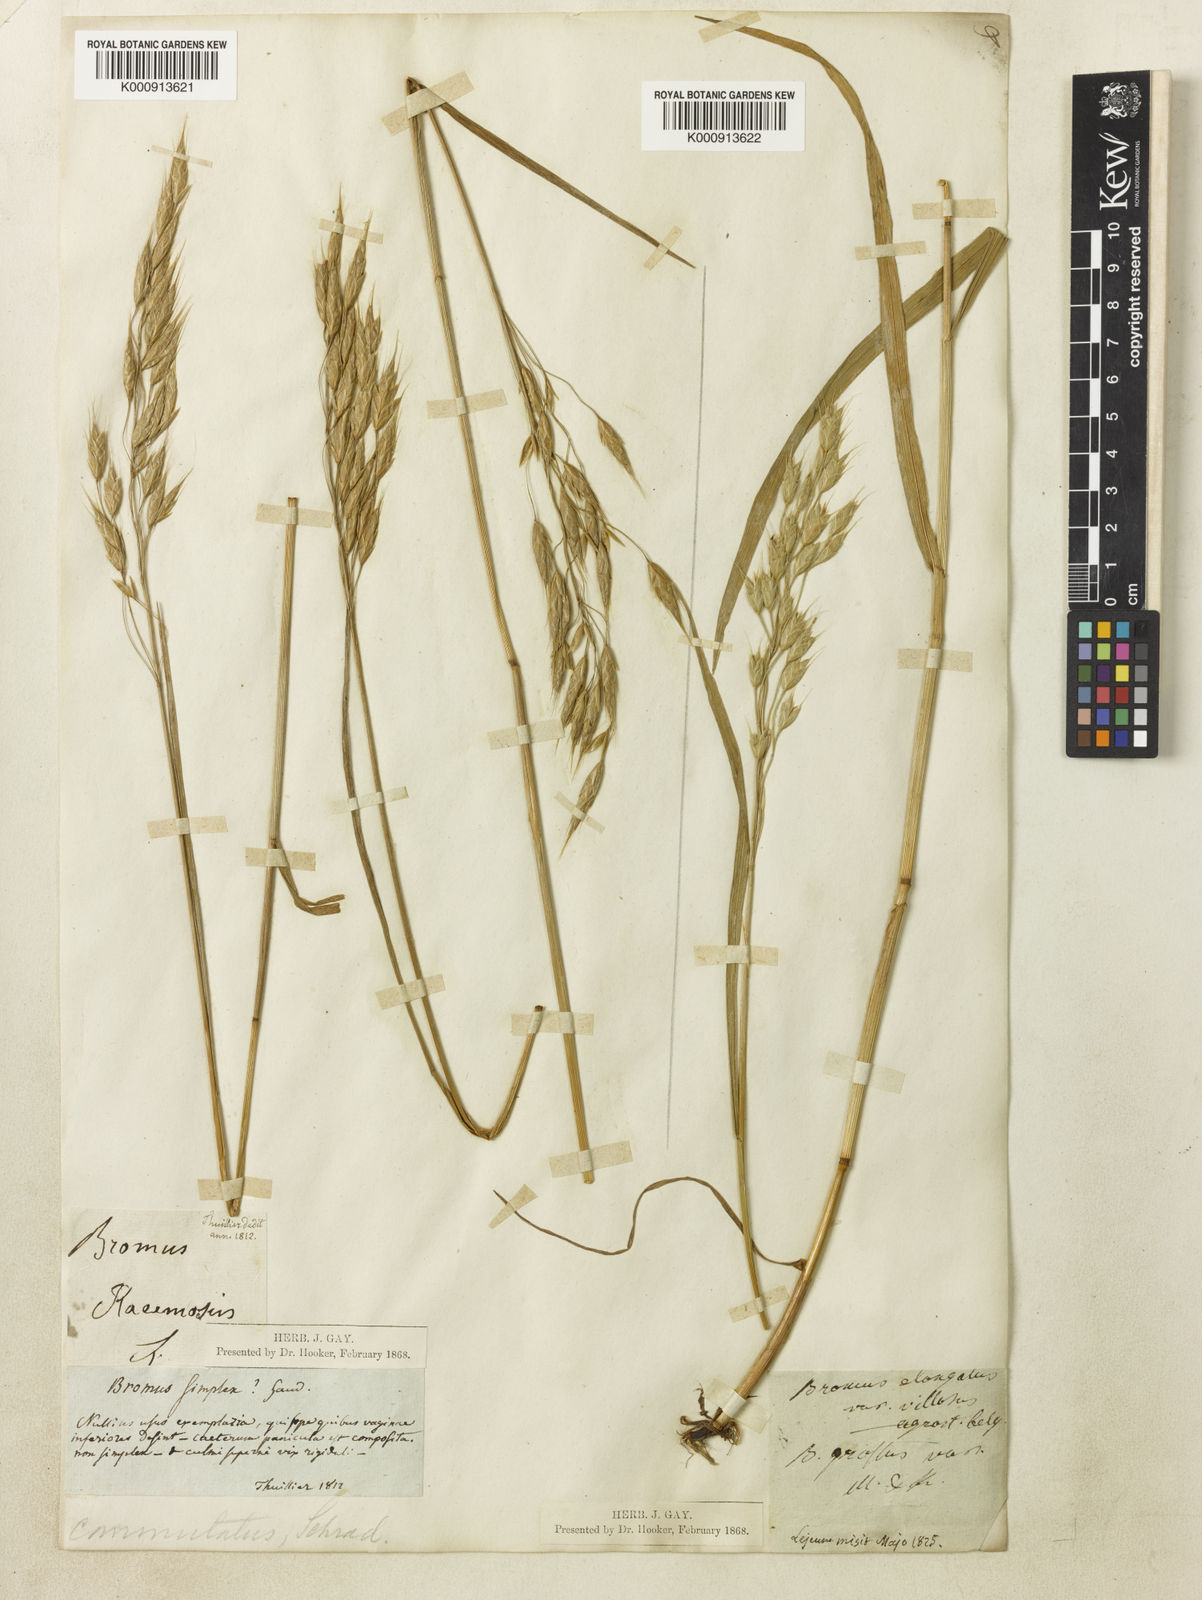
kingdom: Plantae
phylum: Tracheophyta
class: Liliopsida
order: Poales
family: Poaceae
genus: Bromus
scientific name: Bromus commutatus
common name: Meadow brome
